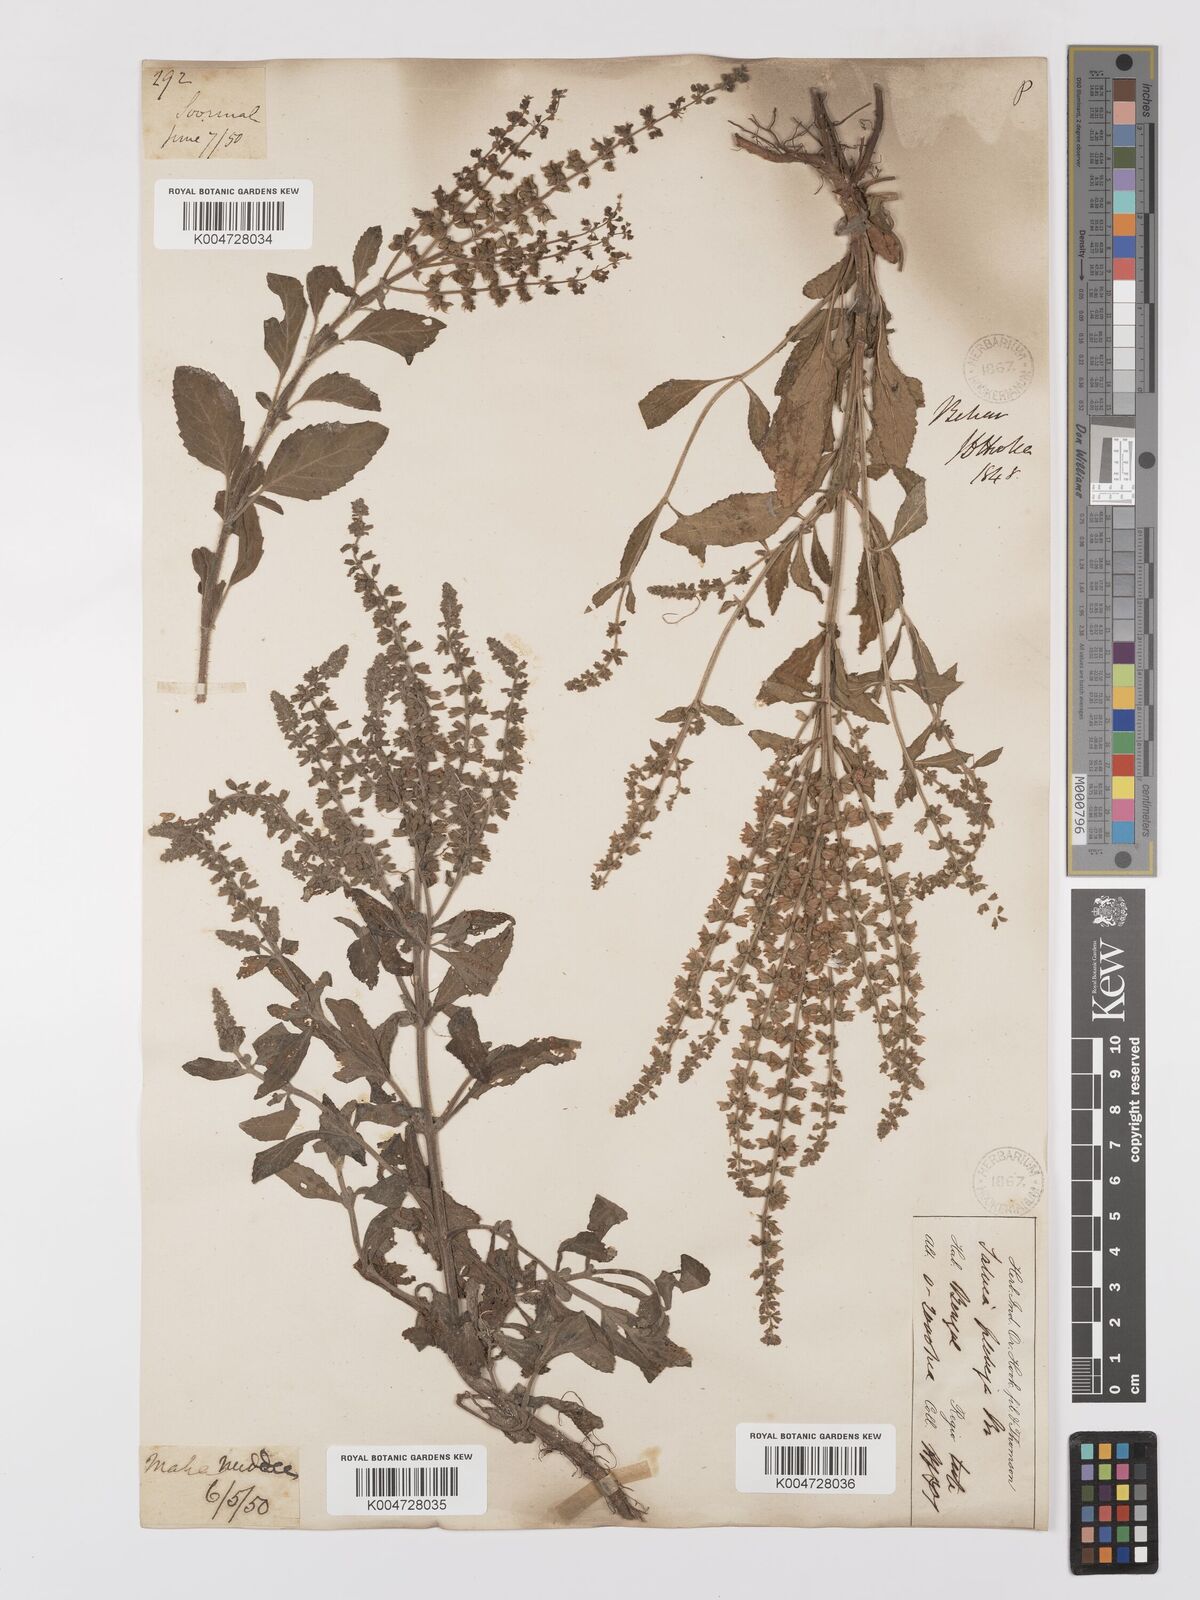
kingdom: Plantae
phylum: Tracheophyta
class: Magnoliopsida
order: Lamiales
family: Lamiaceae
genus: Salvia
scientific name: Salvia plebeia
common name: Australian sage
